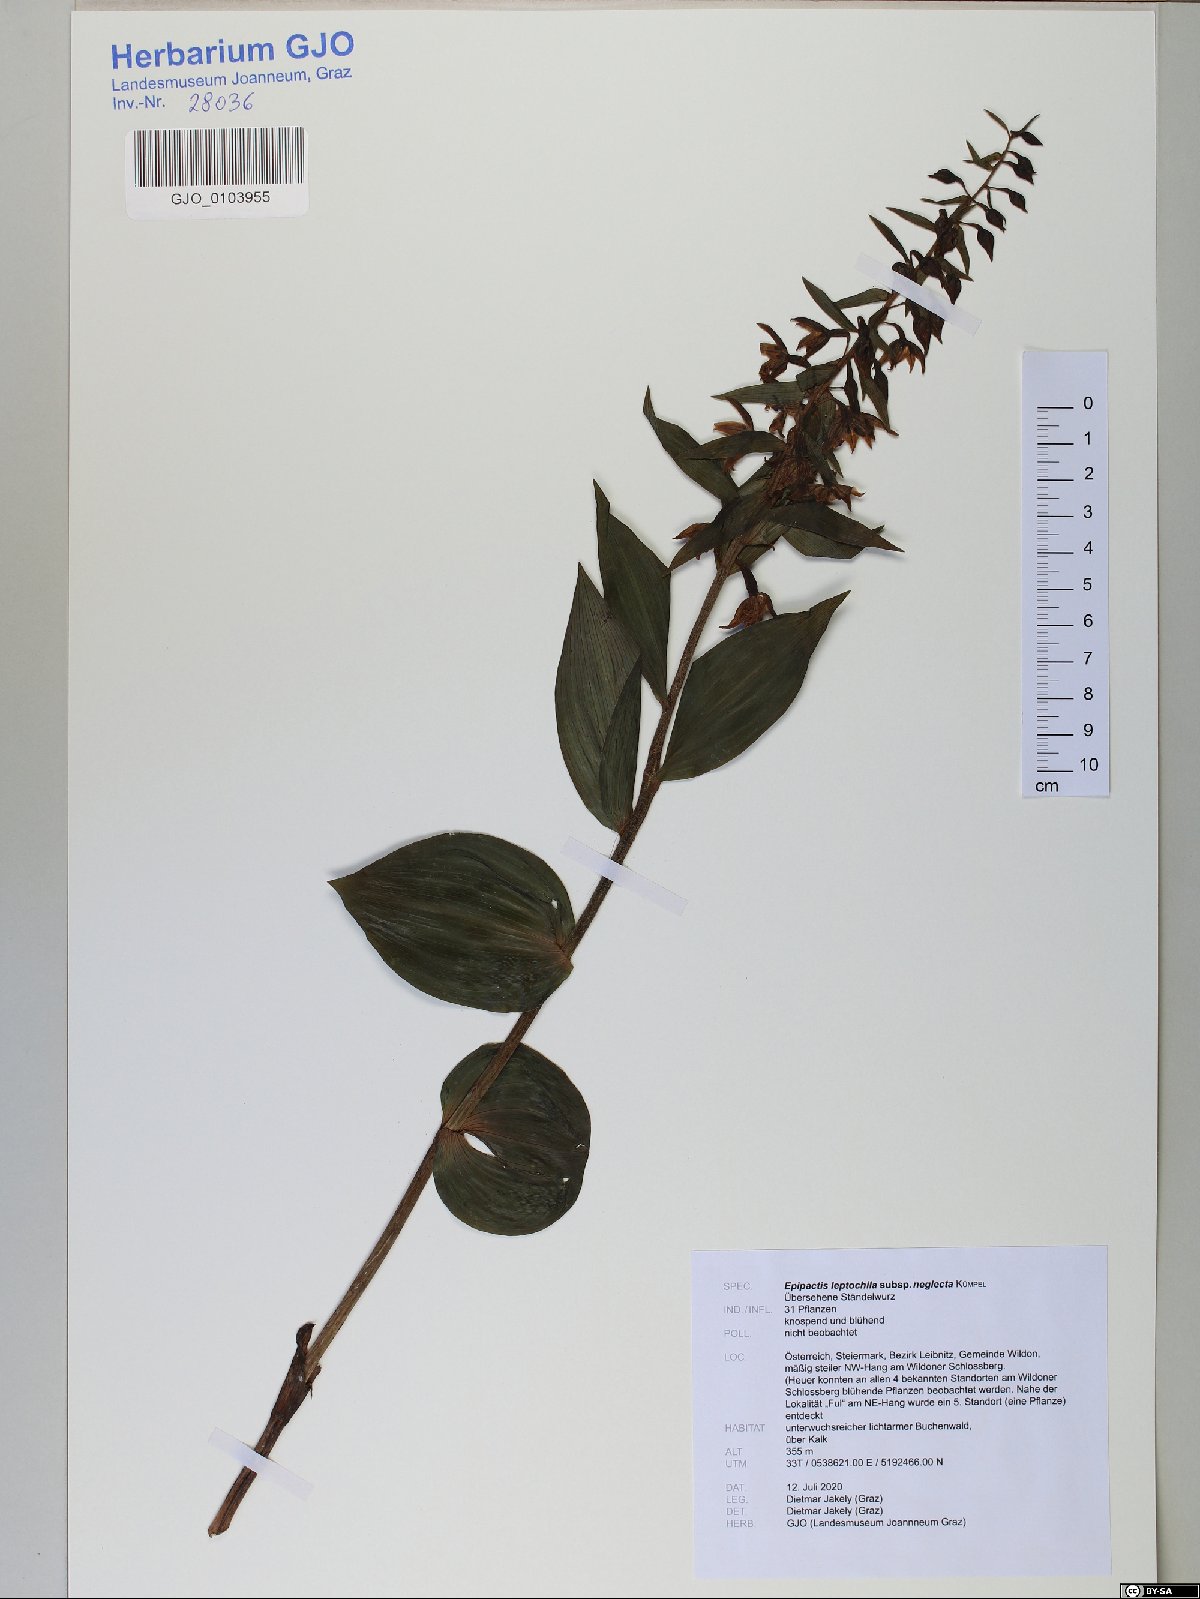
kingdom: Plantae
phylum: Tracheophyta
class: Liliopsida
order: Asparagales
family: Orchidaceae
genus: Epipactis
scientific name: Epipactis leptochila
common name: Narrow-lipped helleborine
